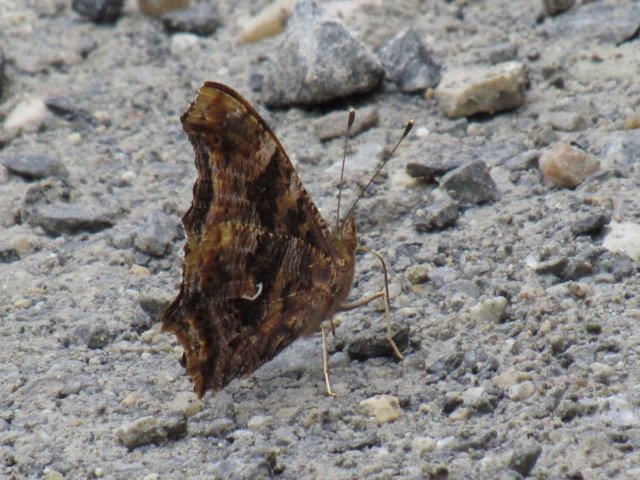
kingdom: Animalia
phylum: Arthropoda
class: Insecta
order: Lepidoptera
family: Nymphalidae
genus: Polygonia
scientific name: Polygonia comma
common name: Eastern Comma
